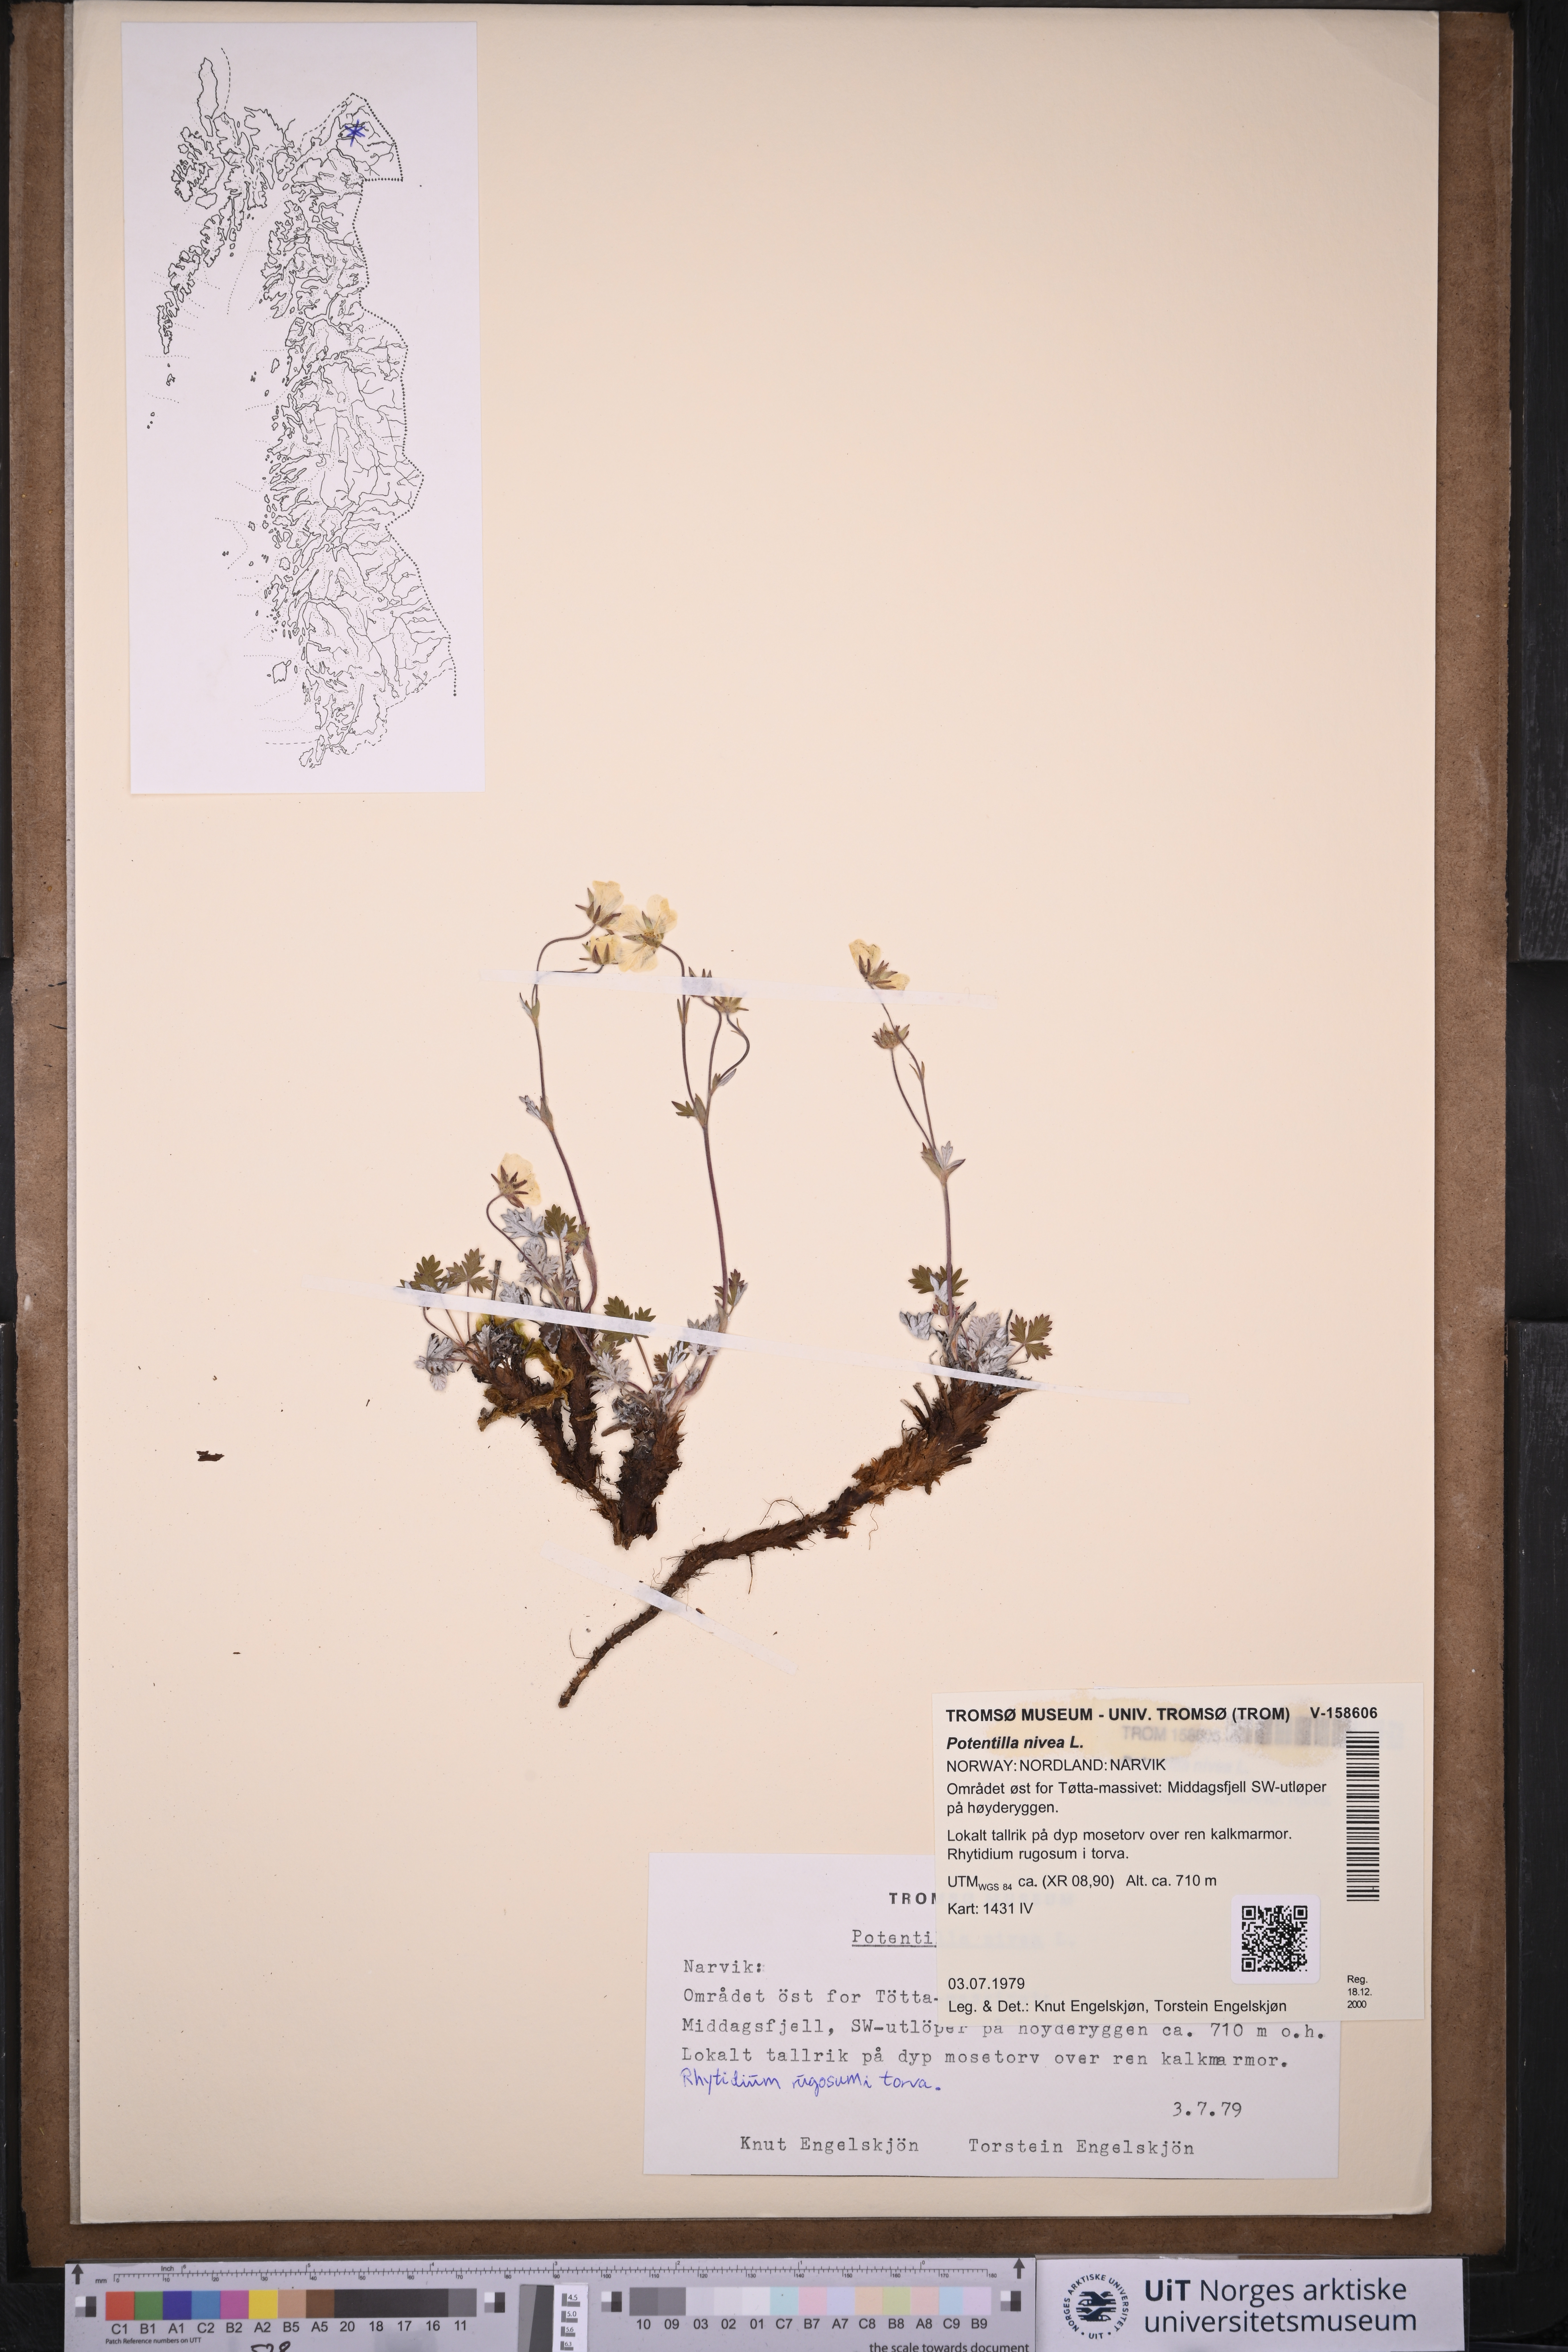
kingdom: Plantae
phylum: Tracheophyta
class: Magnoliopsida
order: Rosales
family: Rosaceae
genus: Potentilla
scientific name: Potentilla arenosa
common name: Bluff cinquefoil
